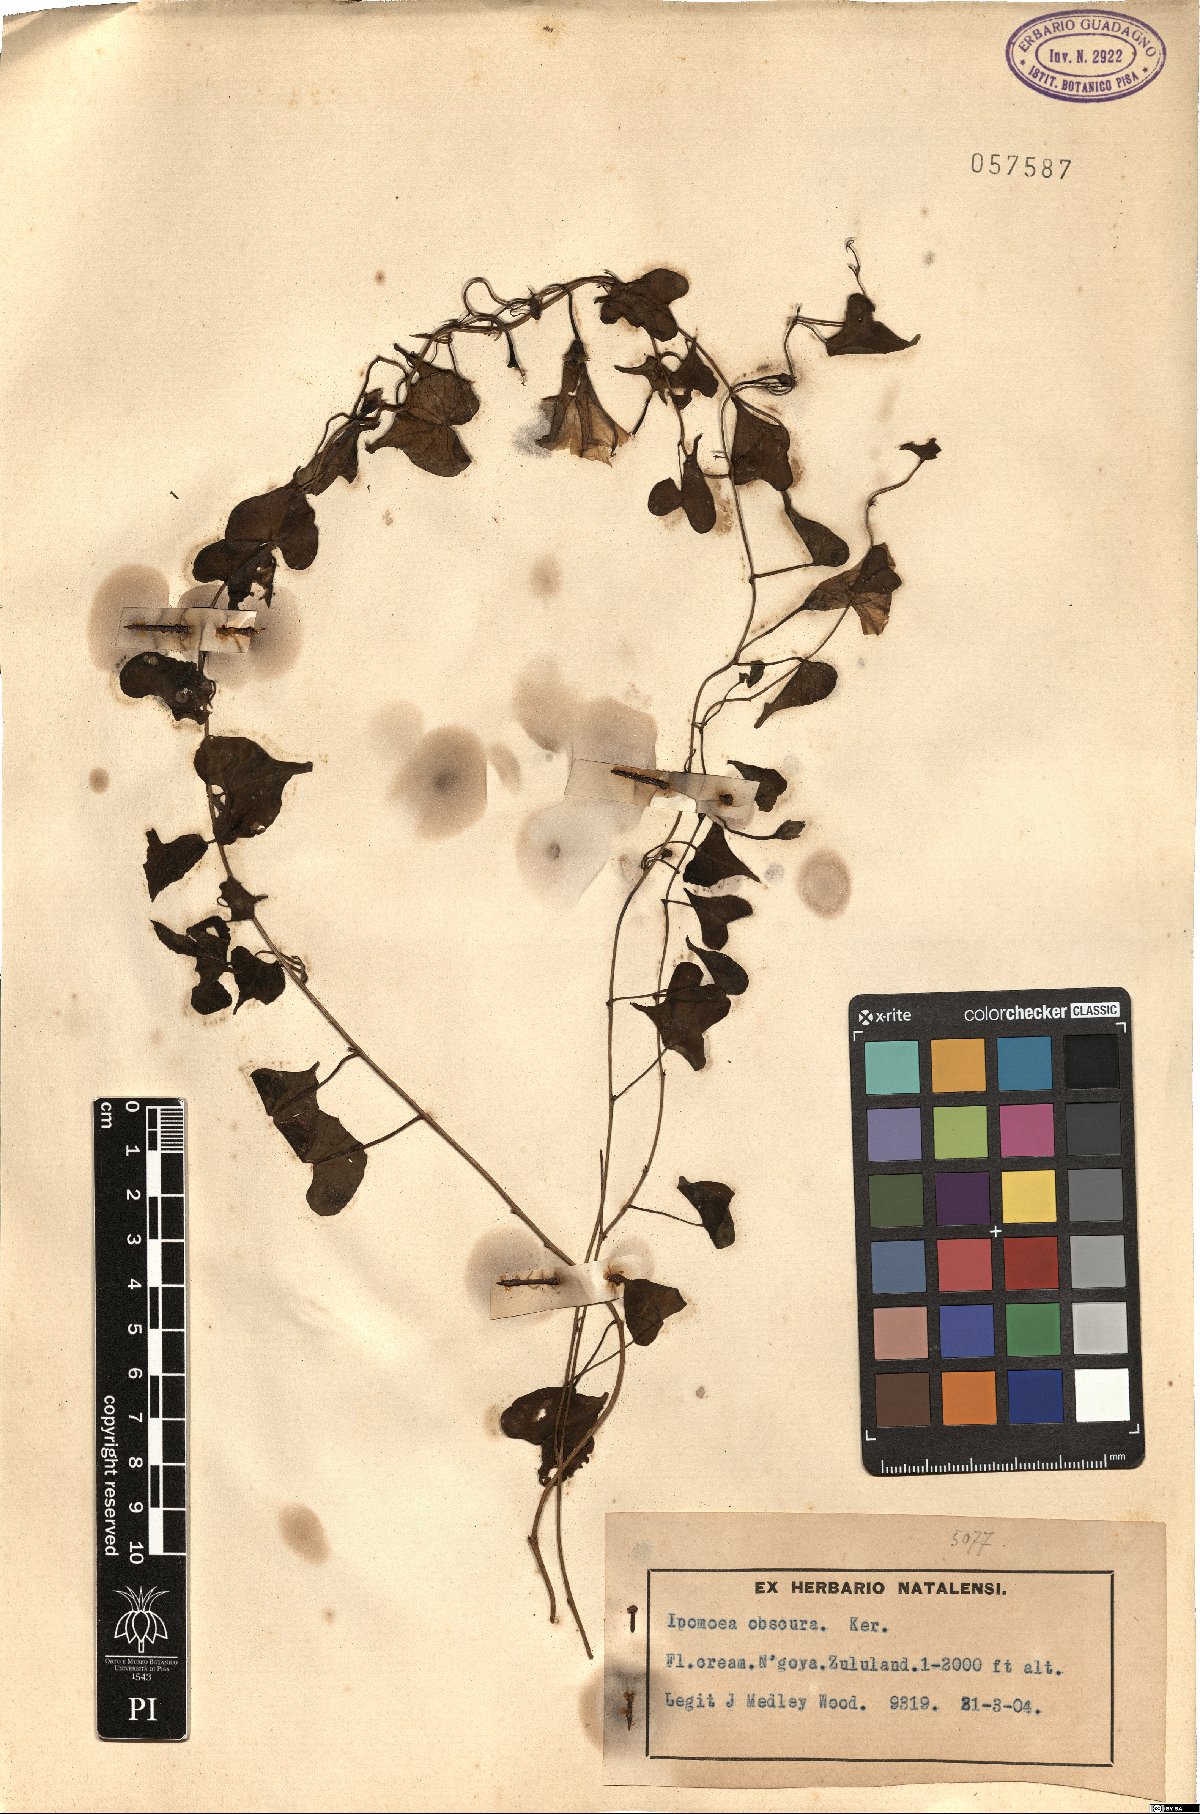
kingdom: Plantae
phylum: Tracheophyta
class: Magnoliopsida
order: Solanales
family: Convolvulaceae
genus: Ipomoea
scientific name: Ipomoea obscura
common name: Obscure morning-glory
